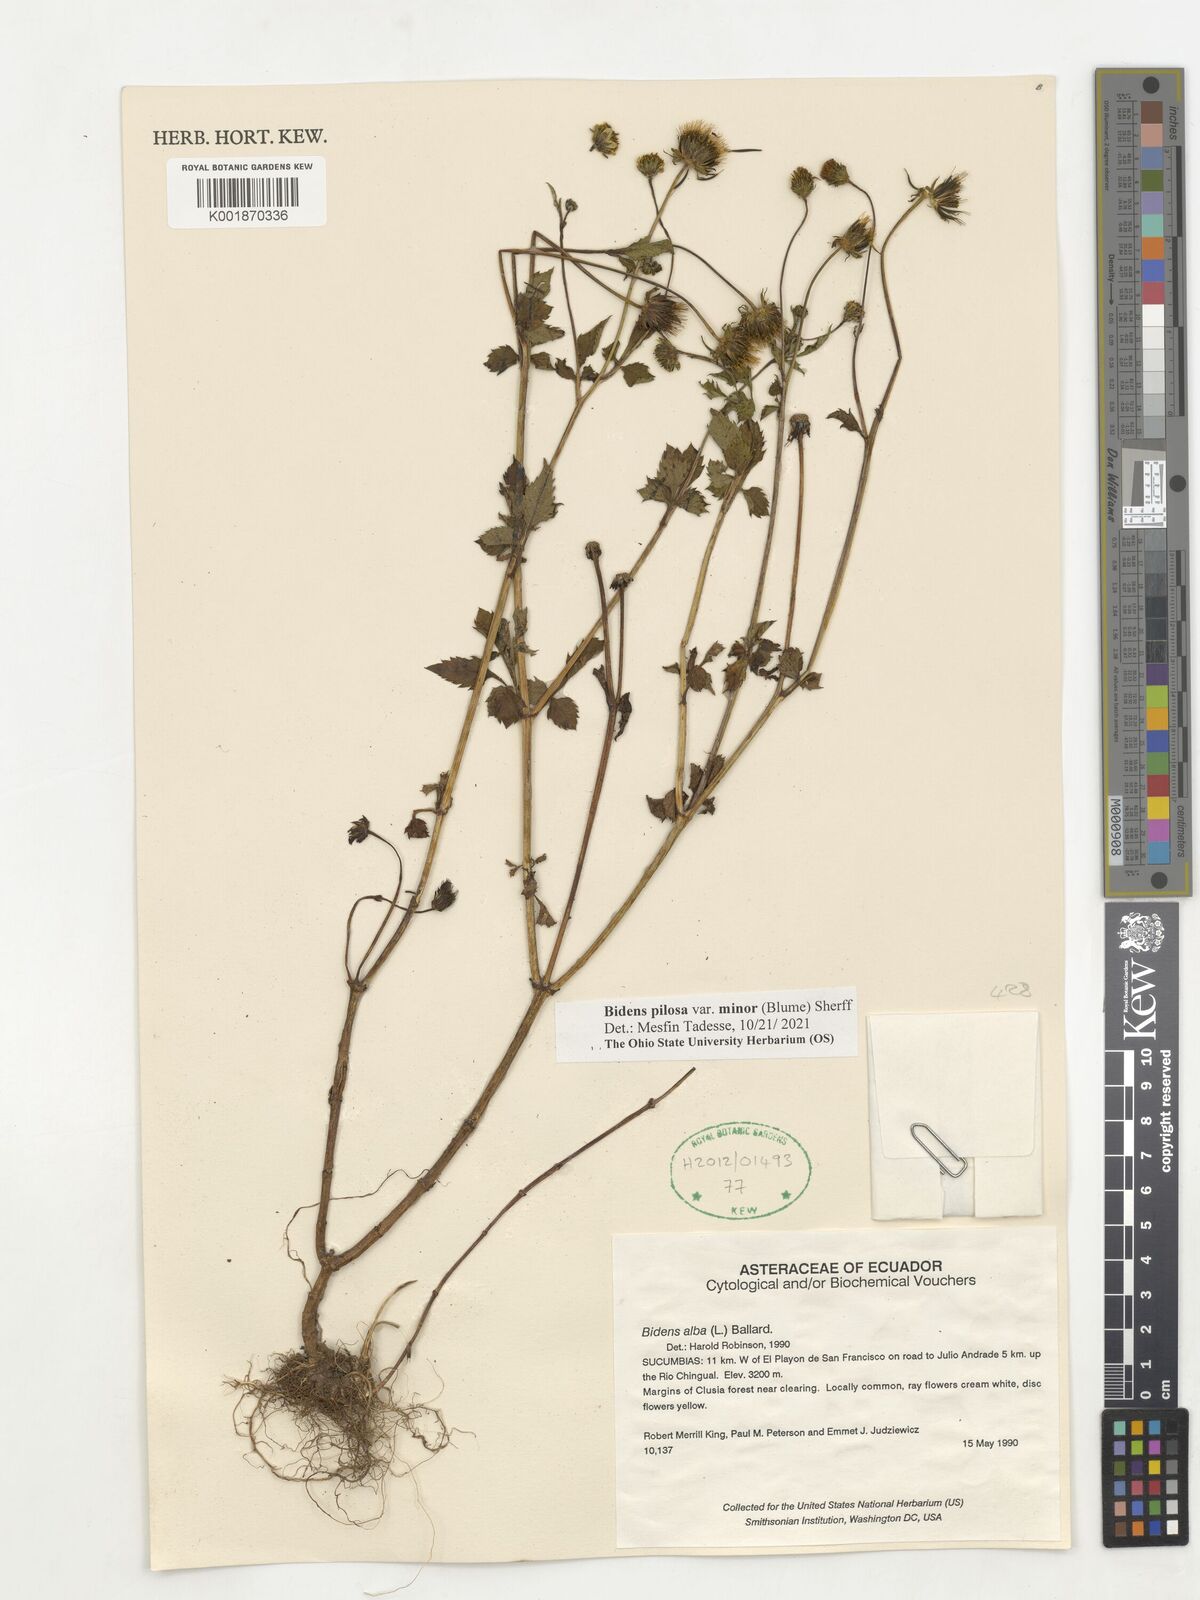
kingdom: Plantae
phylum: Tracheophyta
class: Magnoliopsida
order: Asterales
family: Asteraceae
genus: Bidens
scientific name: Bidens pilosa
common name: Black-jack
